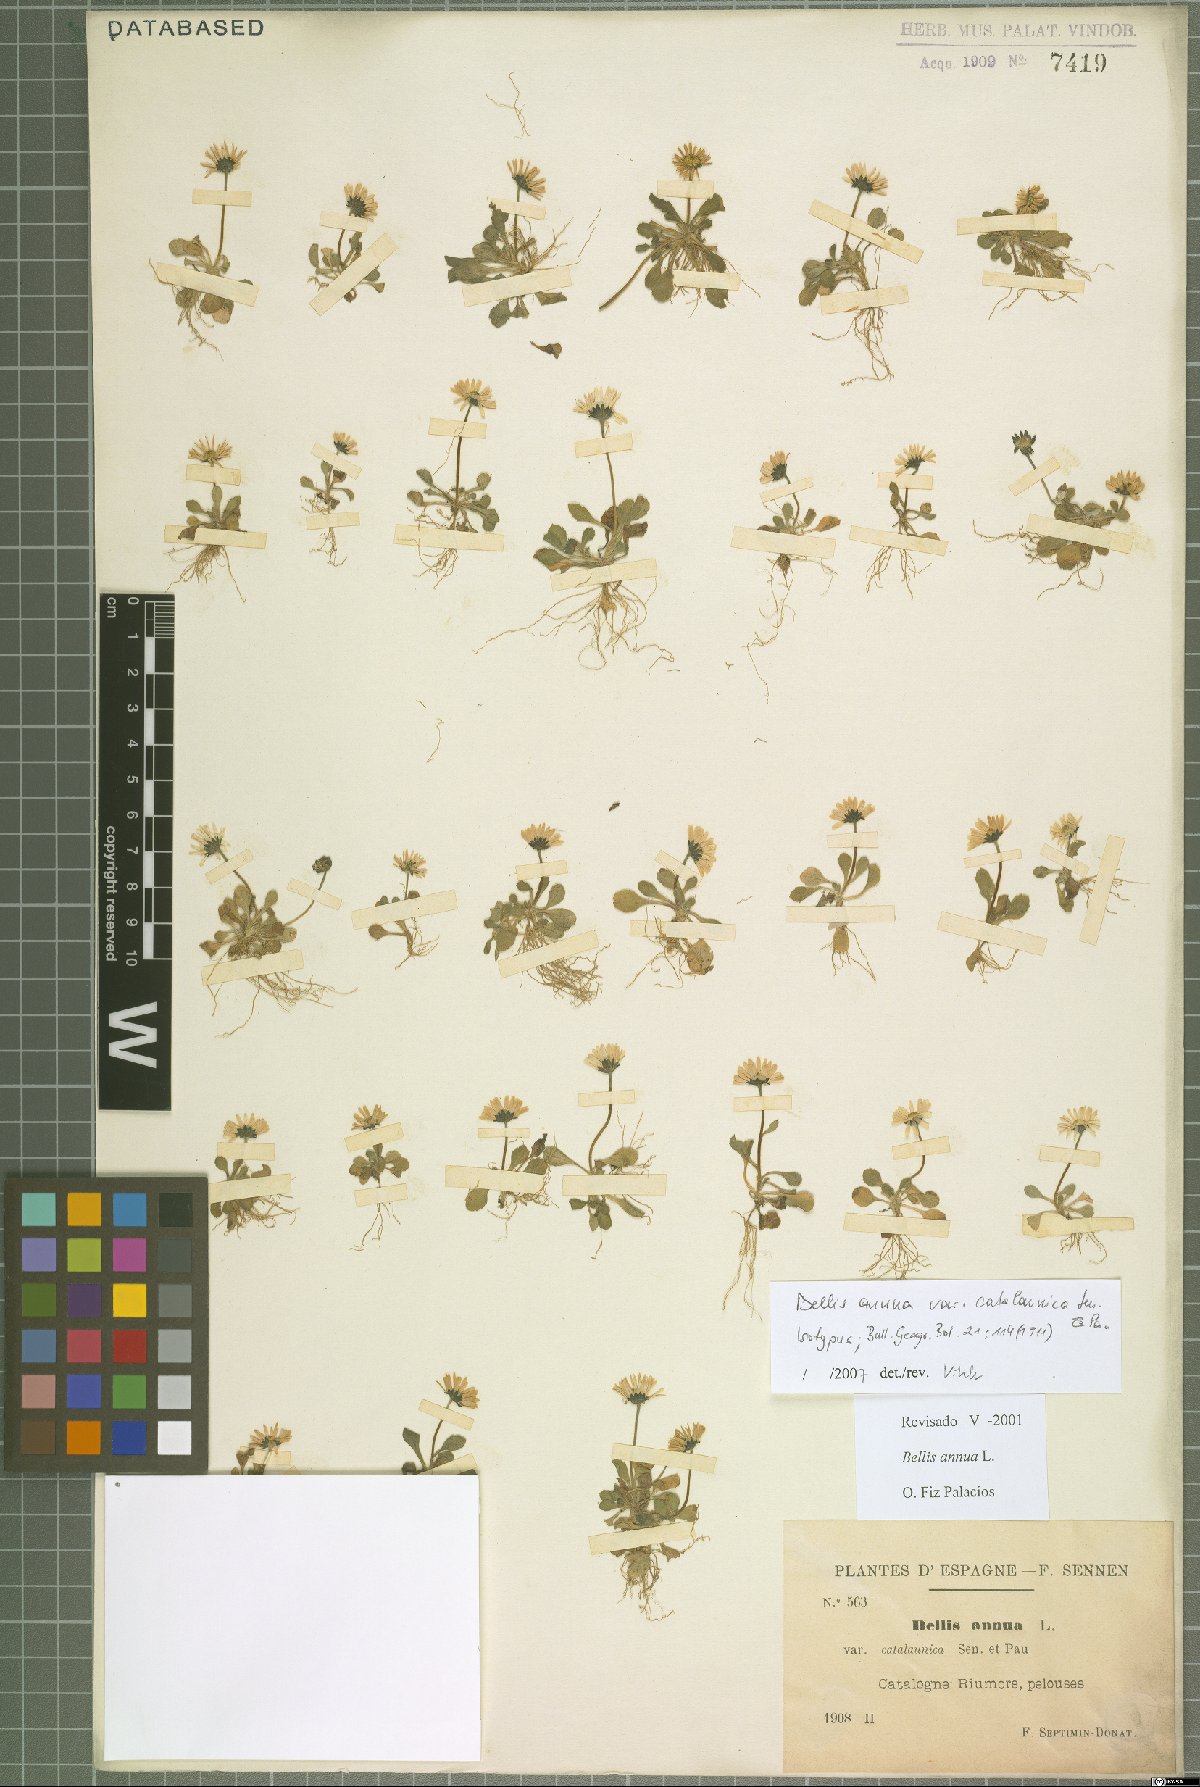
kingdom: Plantae
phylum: Tracheophyta
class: Magnoliopsida
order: Asterales
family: Asteraceae
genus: Bellis
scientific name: Bellis annua
